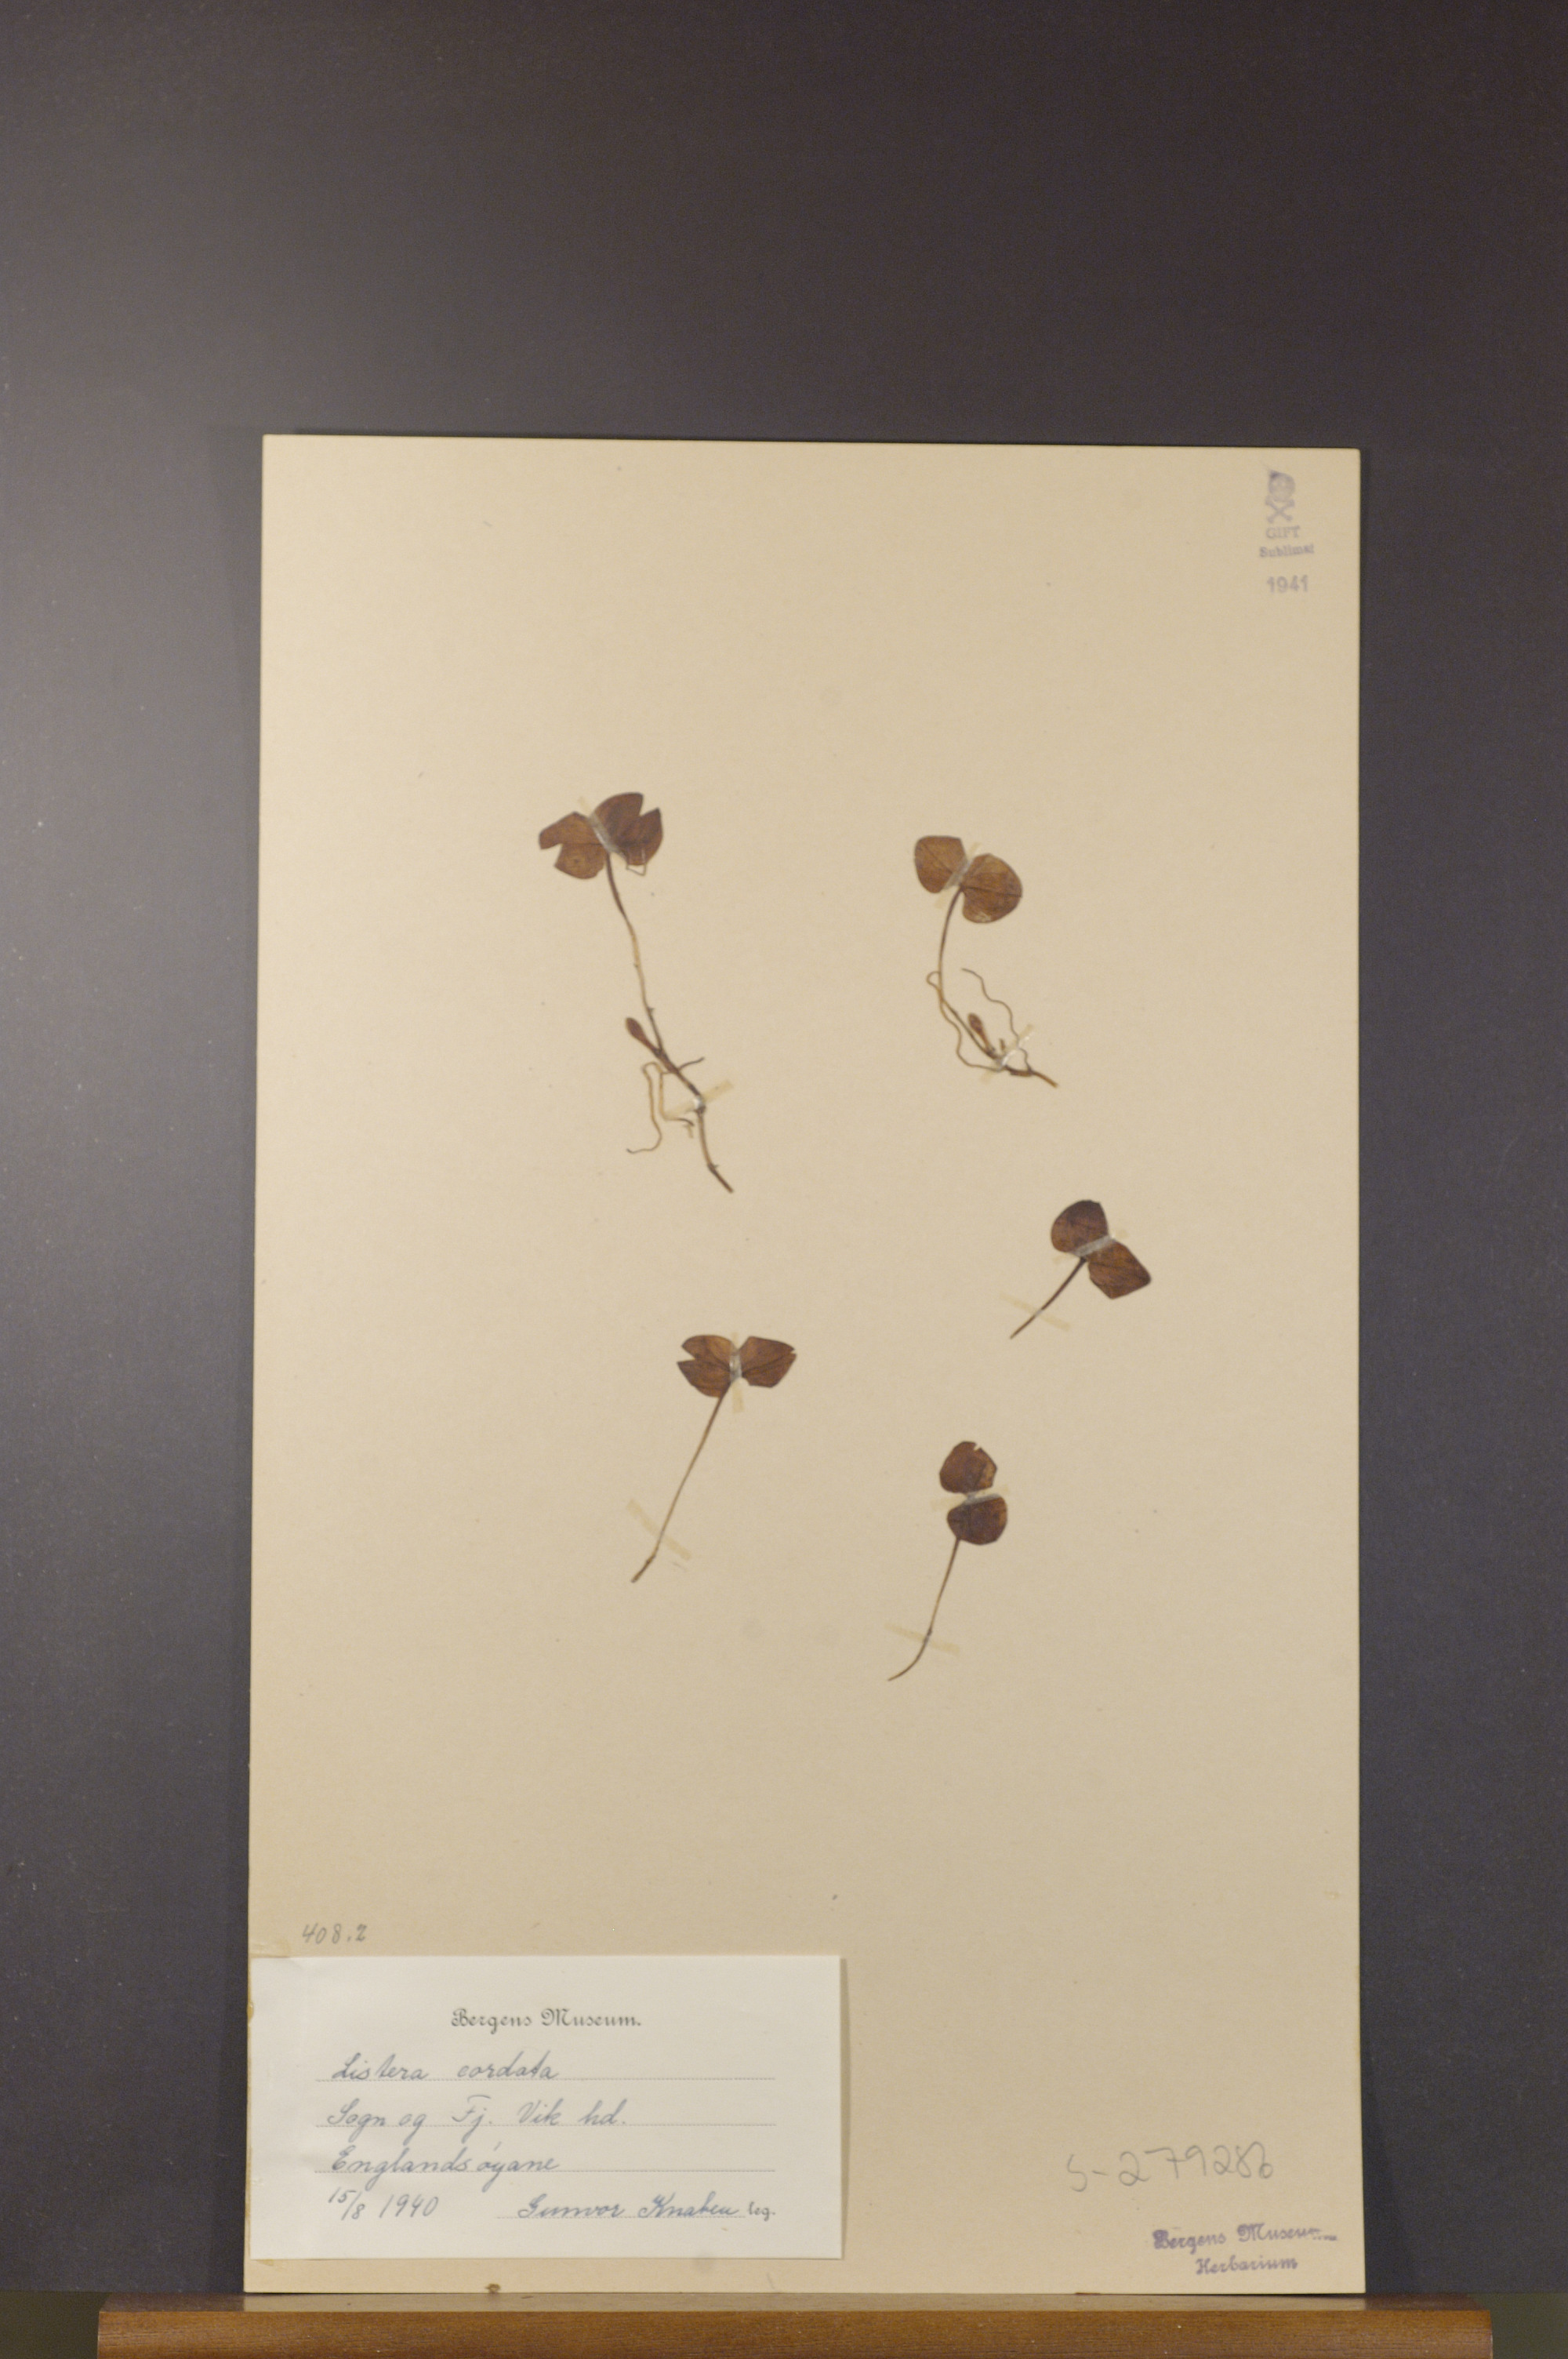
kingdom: Plantae
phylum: Tracheophyta
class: Liliopsida
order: Asparagales
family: Orchidaceae
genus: Neottia
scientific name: Neottia cordata
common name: Lesser twayblade
